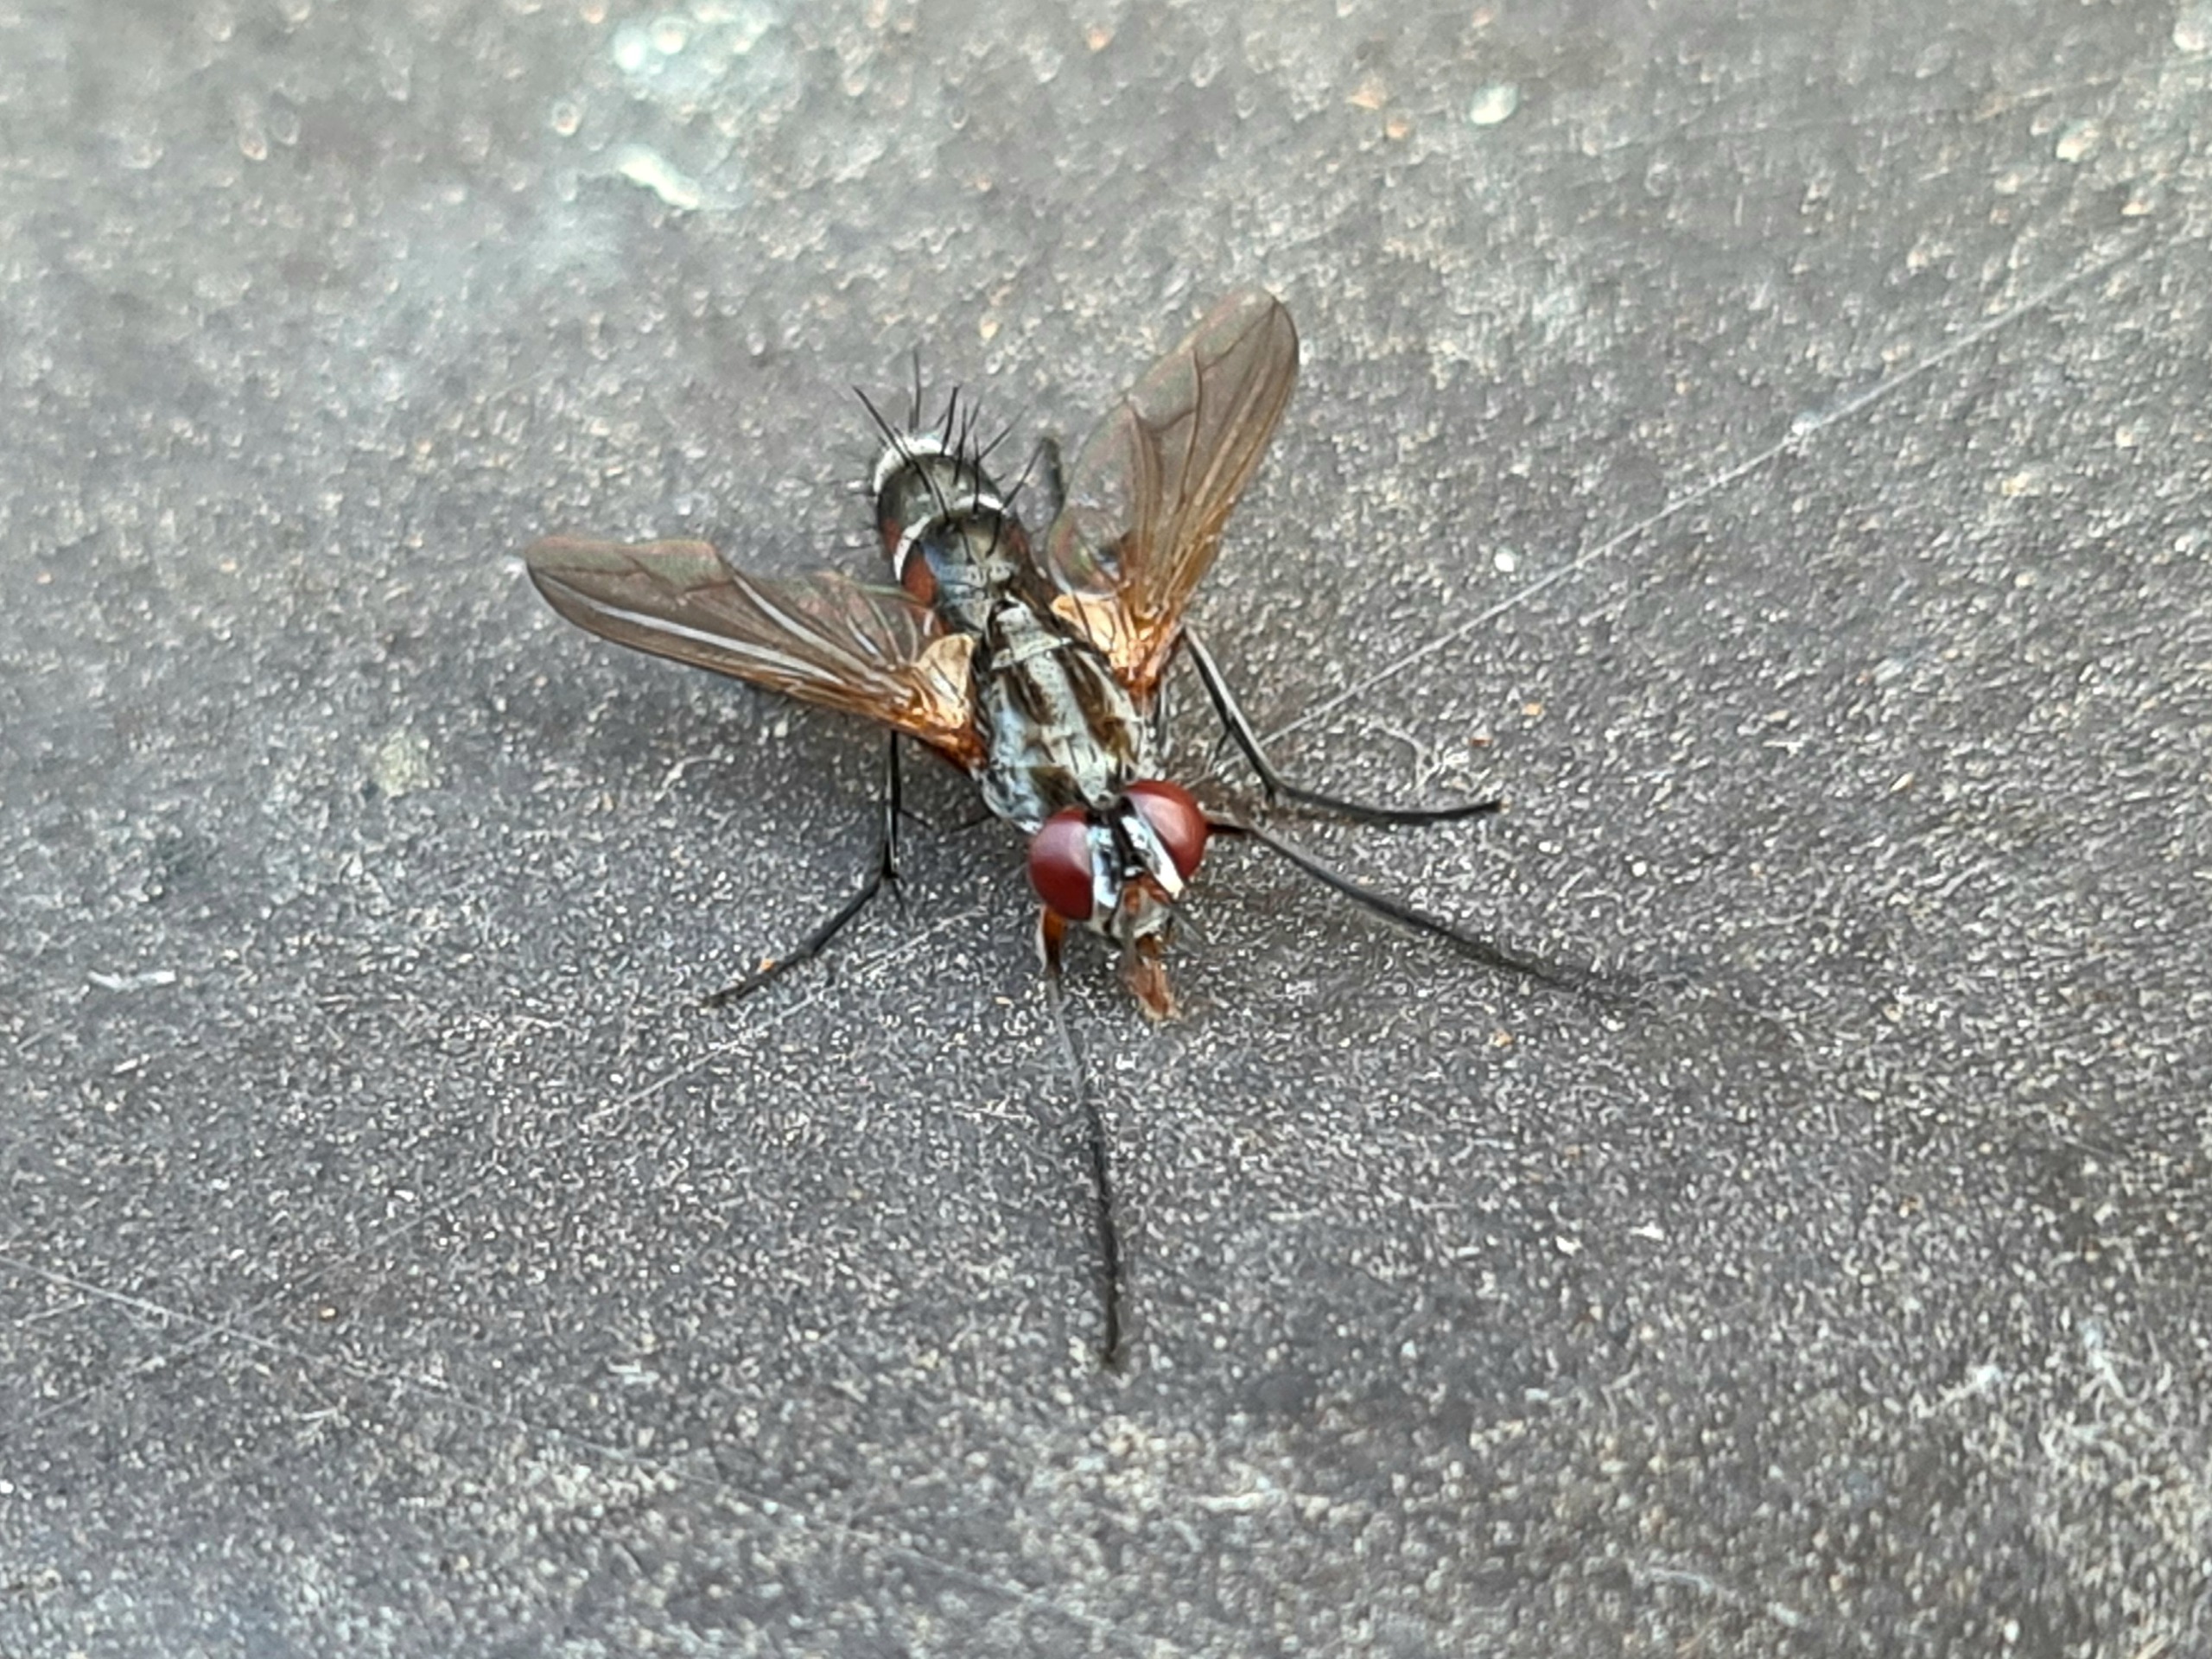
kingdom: Animalia
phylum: Arthropoda
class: Insecta
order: Diptera
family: Tachinidae
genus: Mintho
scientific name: Mintho rufiventris
